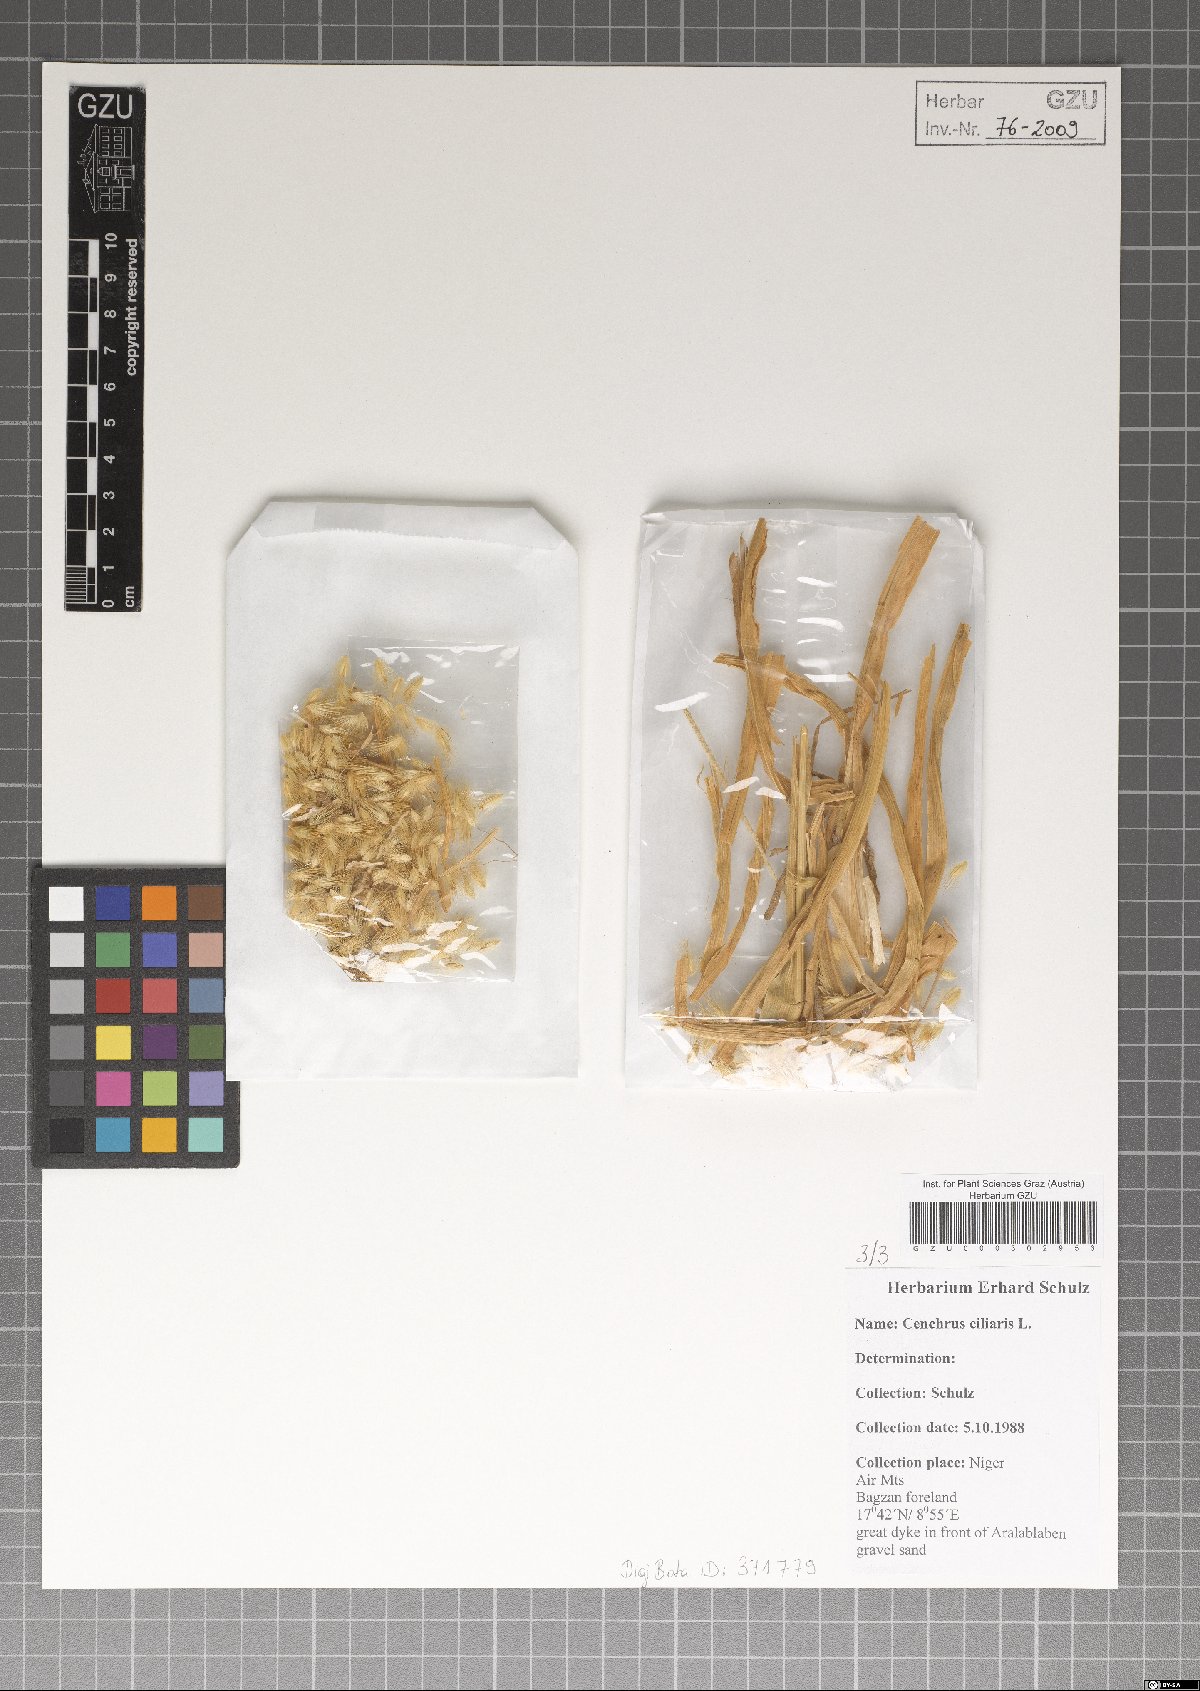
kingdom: Plantae
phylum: Tracheophyta
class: Liliopsida
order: Poales
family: Poaceae
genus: Cenchrus
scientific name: Cenchrus ciliaris
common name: Buffelgrass
